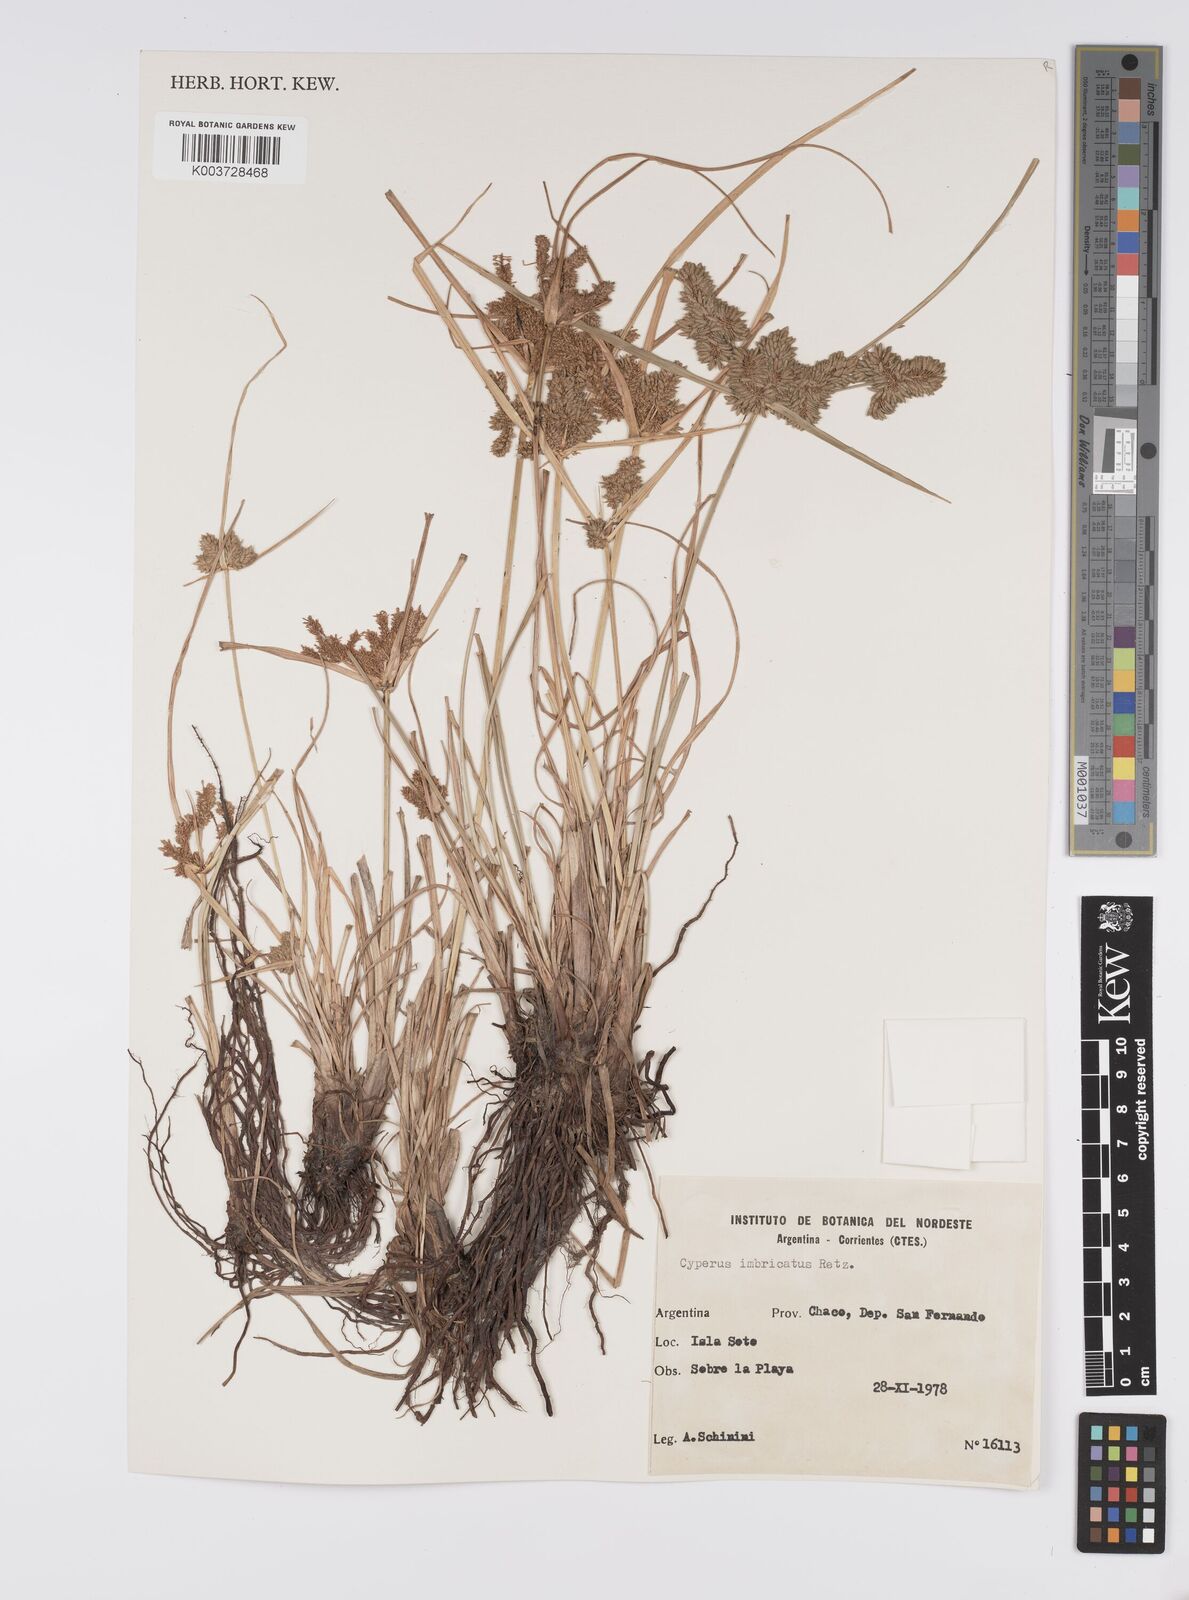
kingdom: Plantae
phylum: Tracheophyta
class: Liliopsida
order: Poales
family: Cyperaceae
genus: Cyperus
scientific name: Cyperus imbricatus
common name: Shingle flatsedge
